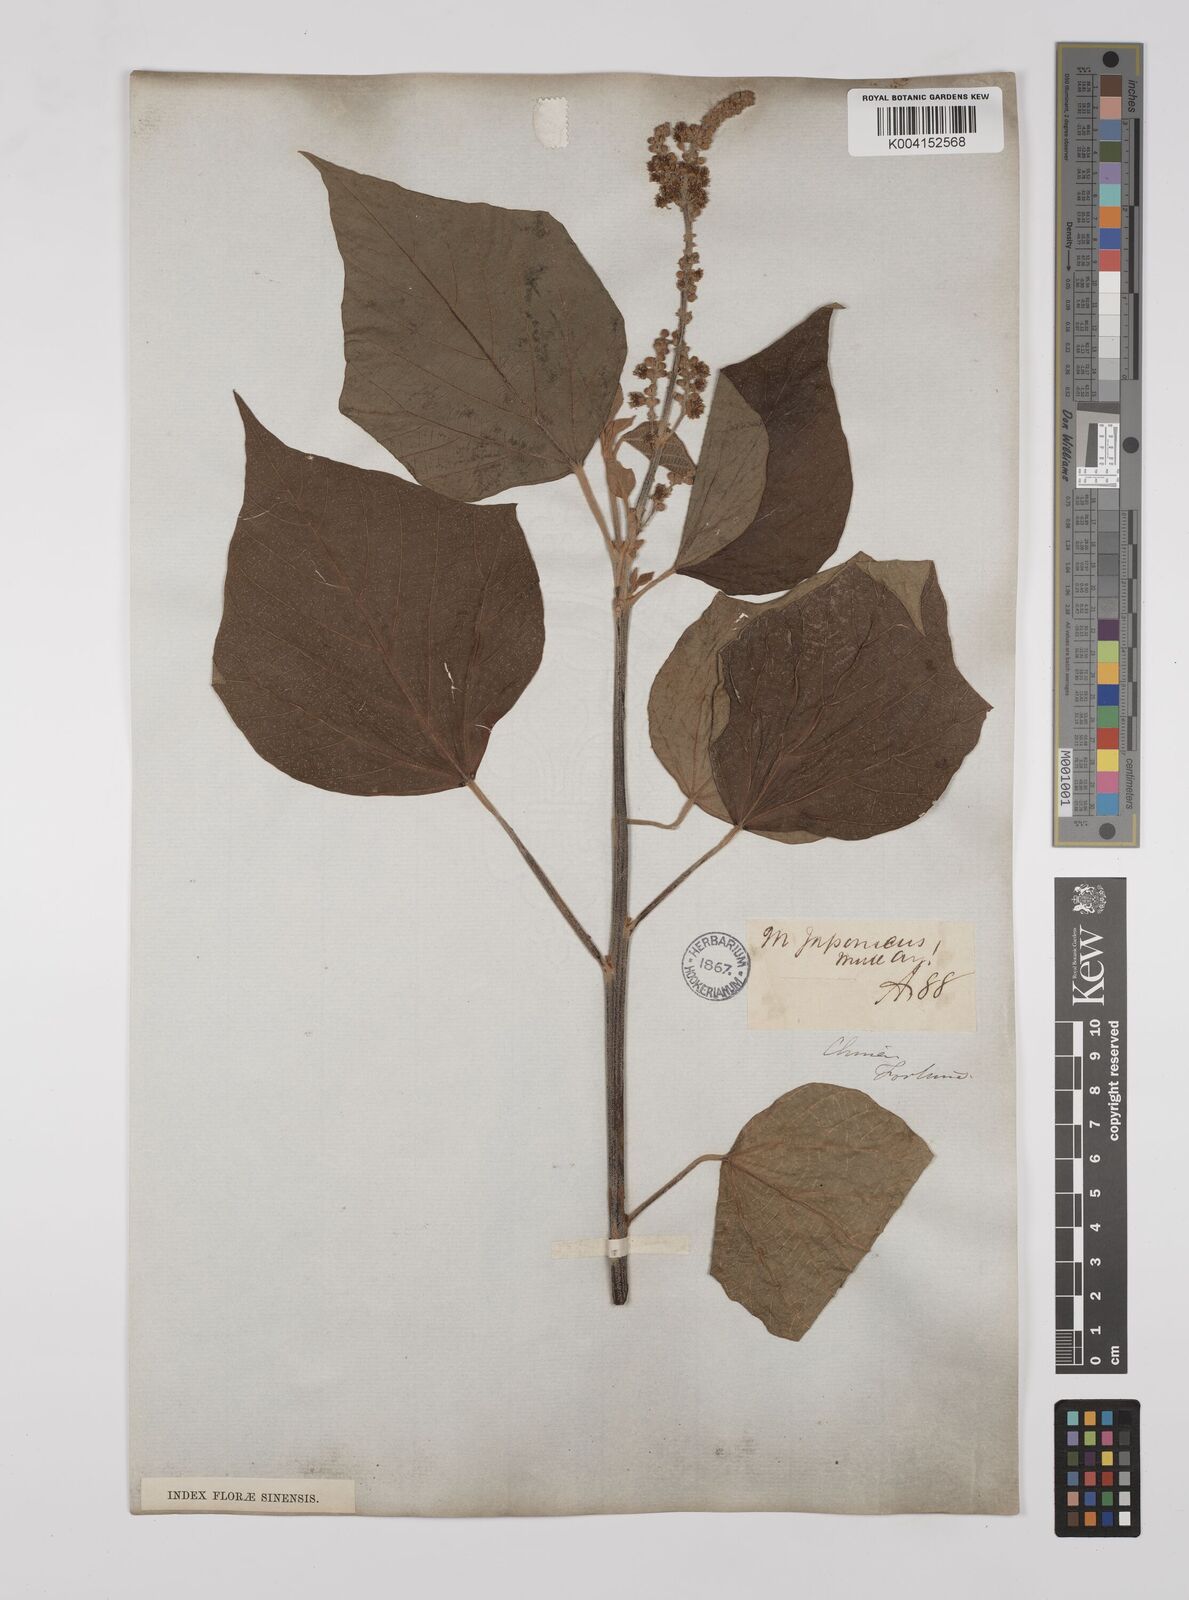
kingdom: Plantae
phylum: Tracheophyta
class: Magnoliopsida
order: Malpighiales
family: Euphorbiaceae
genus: Mallotus
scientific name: Mallotus japonicus
